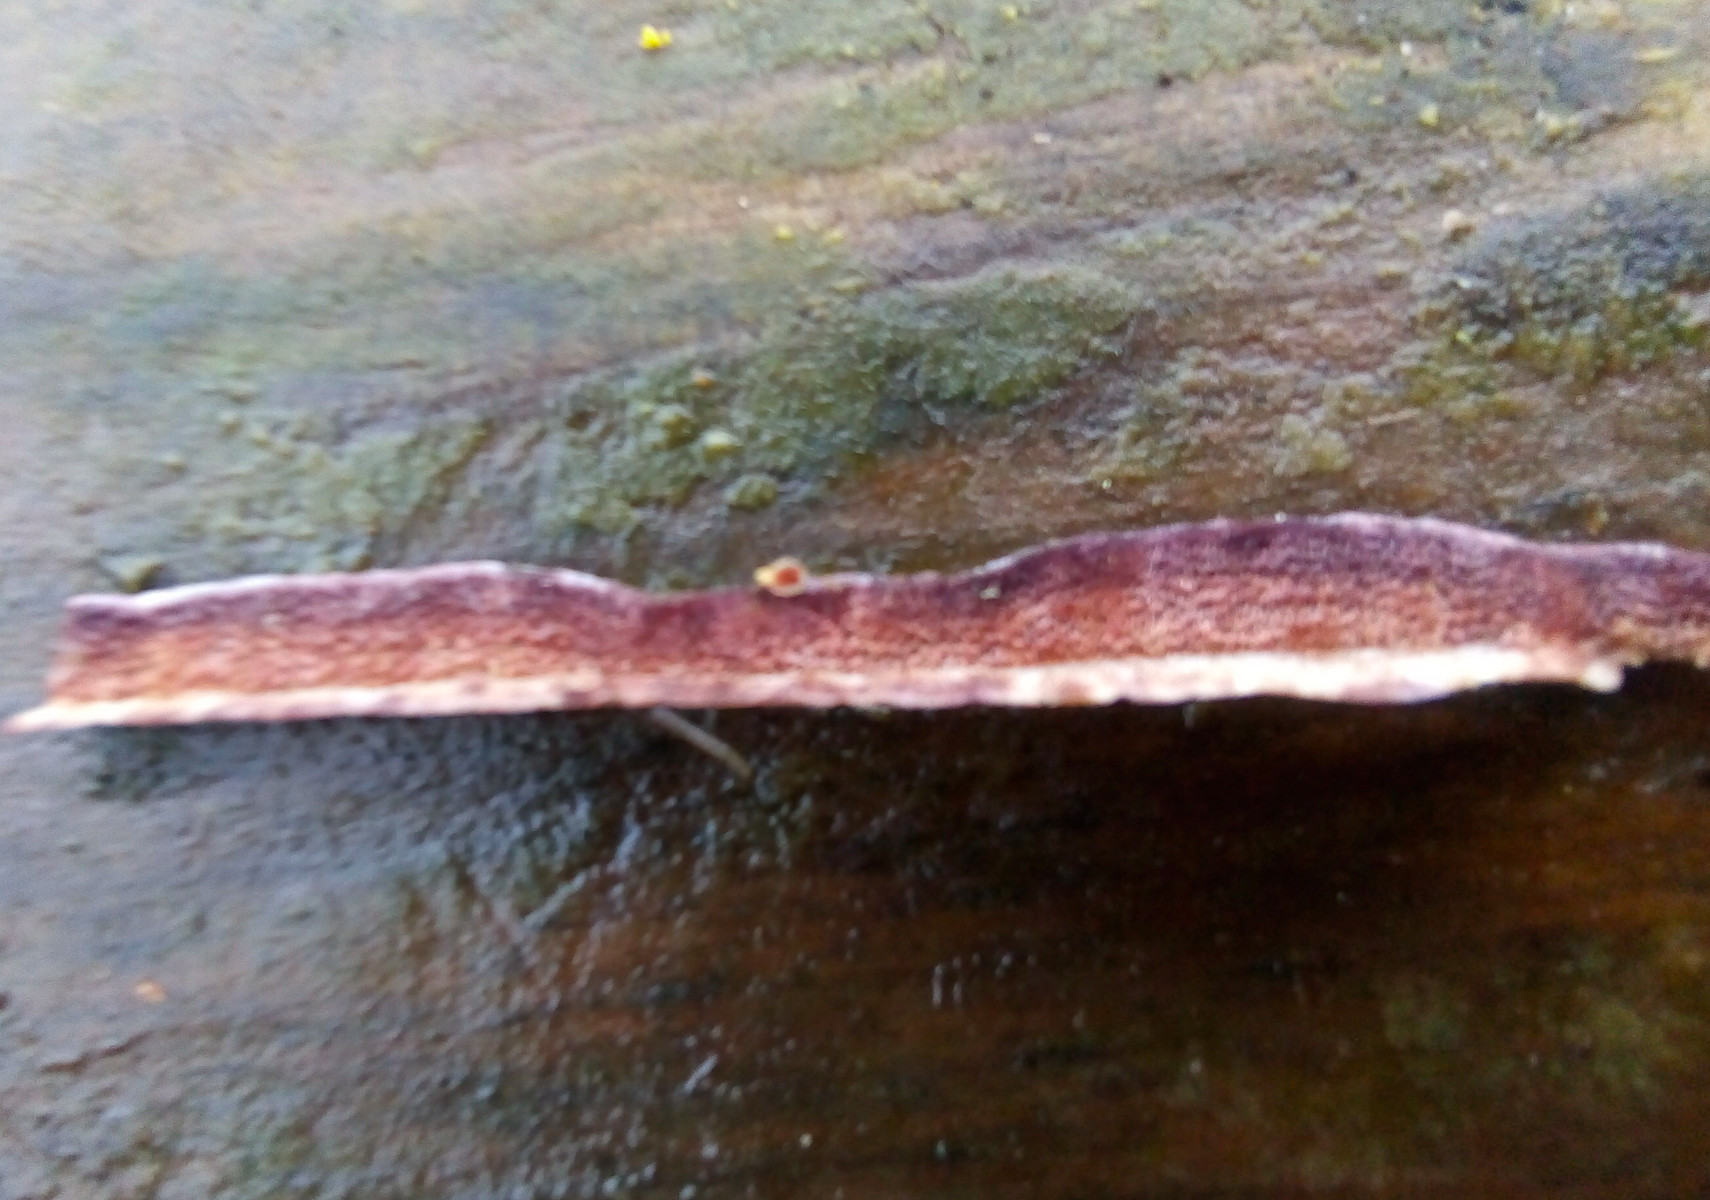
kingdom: Fungi
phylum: Basidiomycota
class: Agaricomycetes
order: Hymenochaetales
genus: Trichaptum
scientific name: Trichaptum abietinum
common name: almindelig violporesvamp
